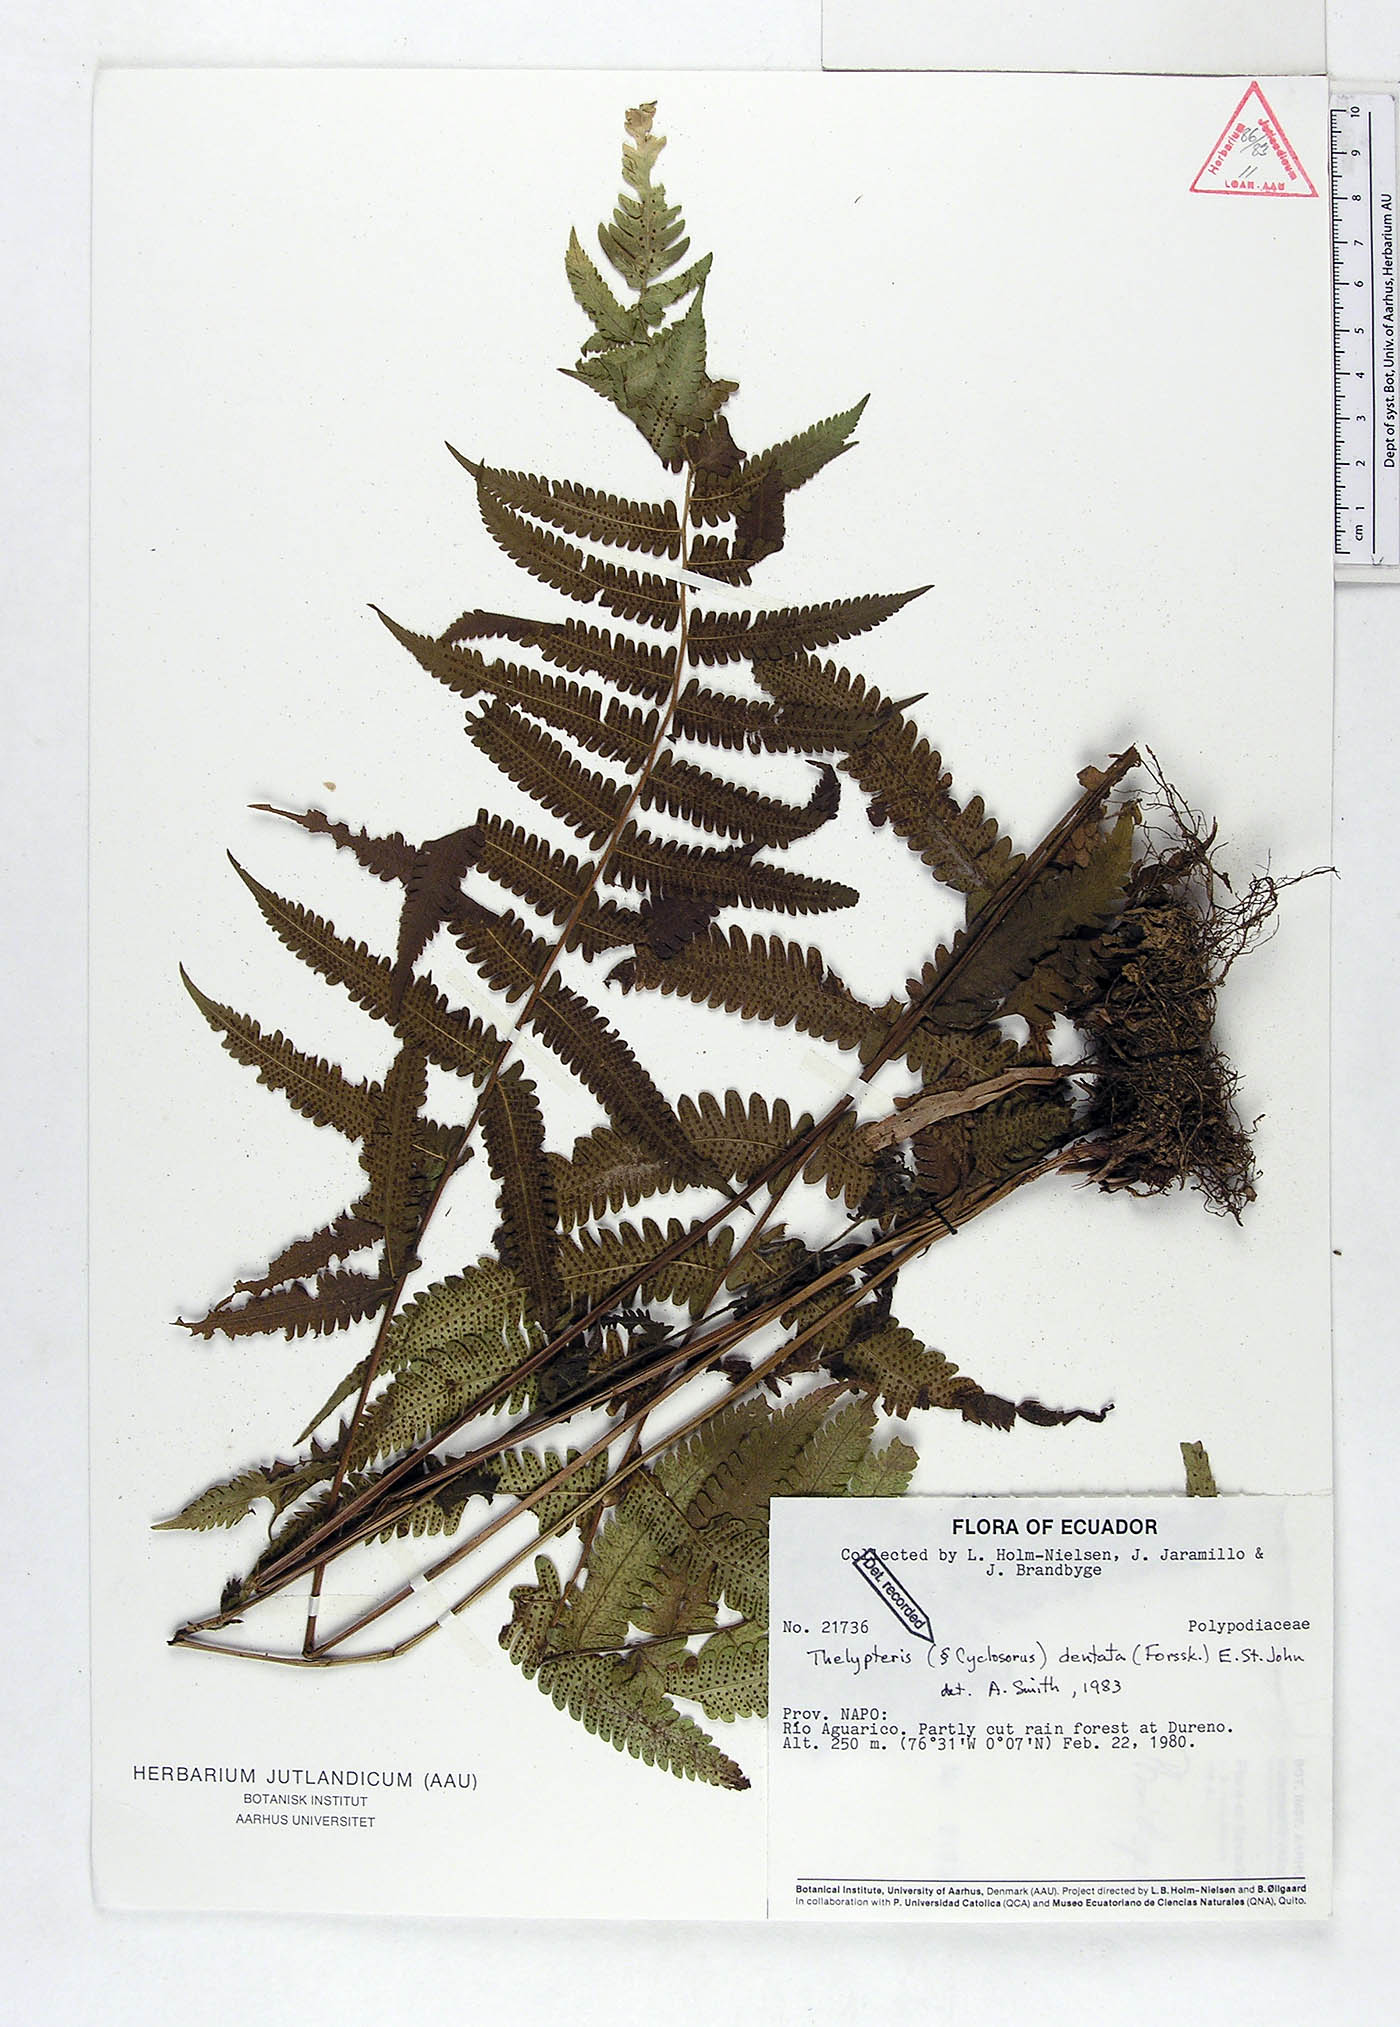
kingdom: Plantae
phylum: Tracheophyta
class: Polypodiopsida
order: Polypodiales
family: Thelypteridaceae
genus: Christella
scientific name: Christella dentata
